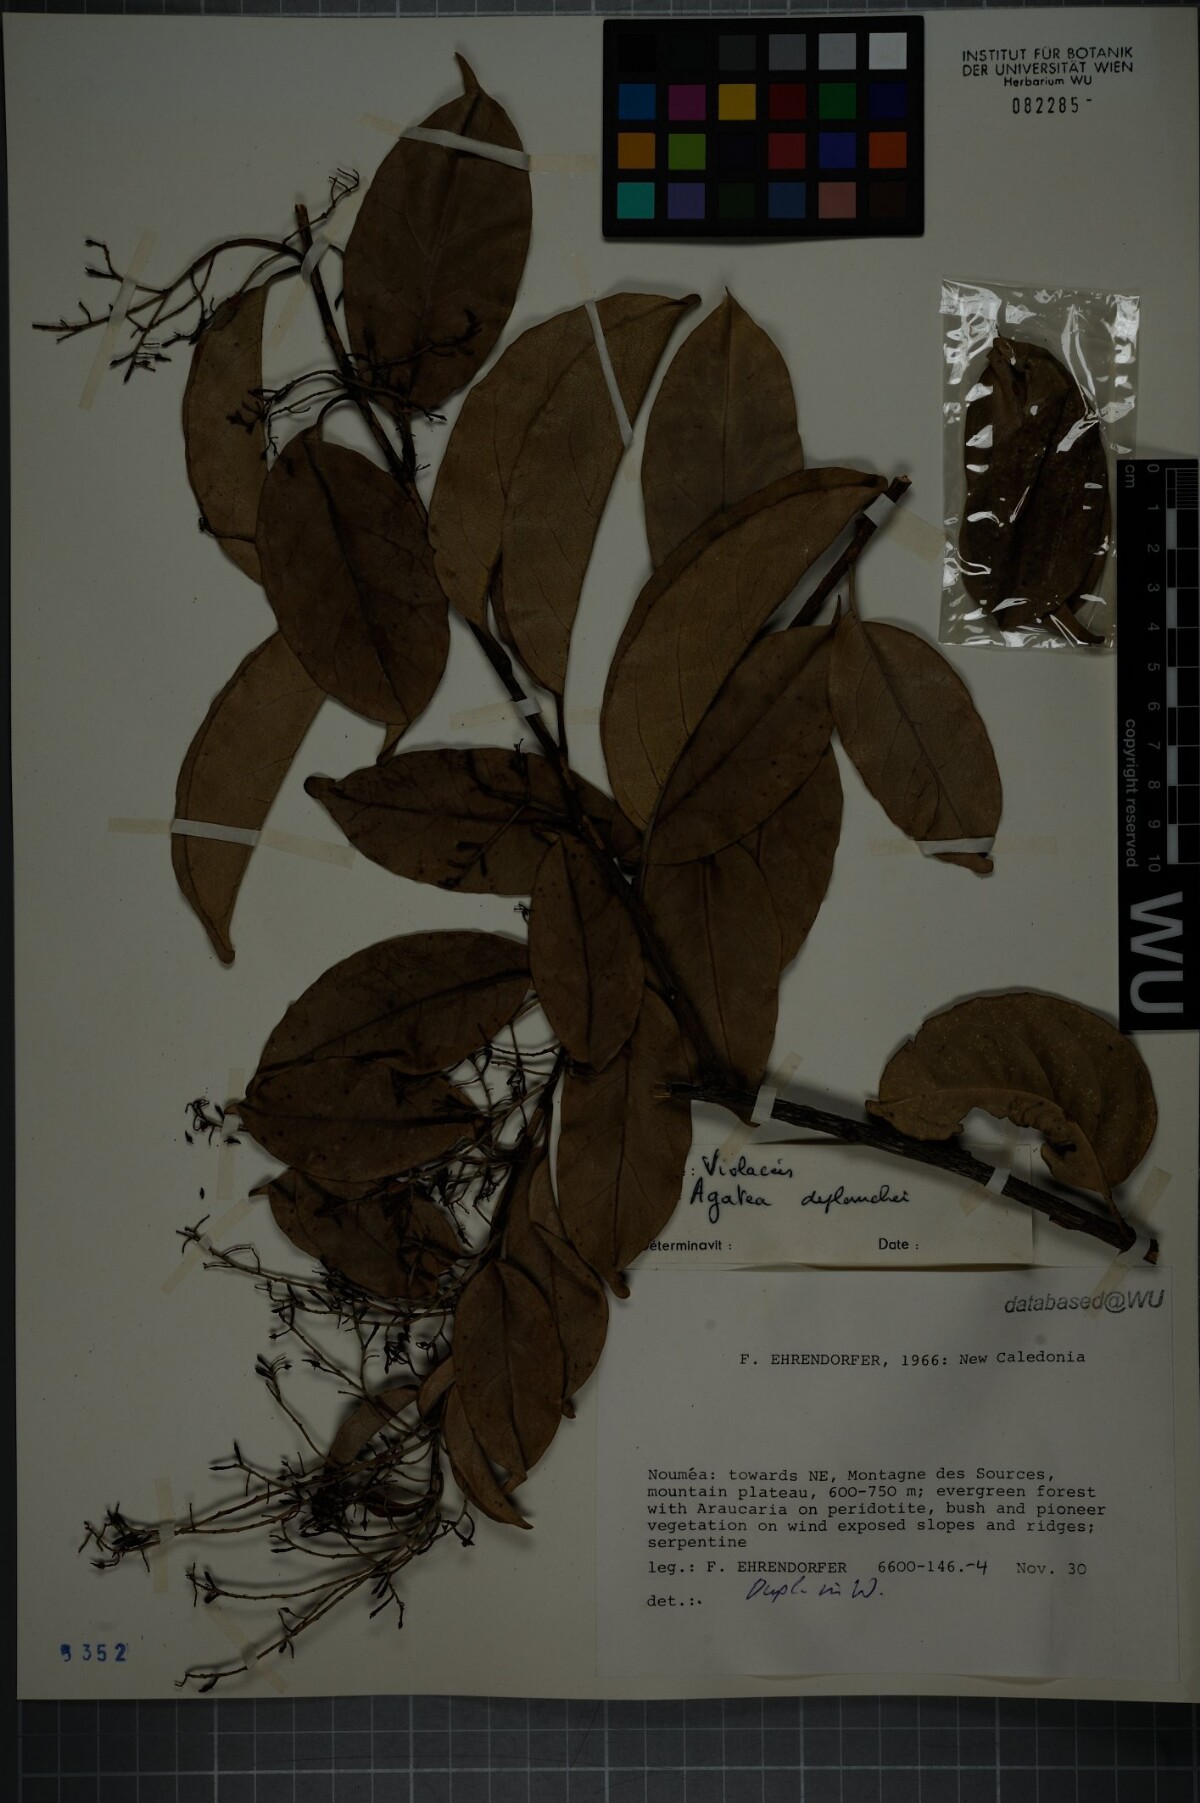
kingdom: Plantae
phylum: Tracheophyta
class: Magnoliopsida
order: Malpighiales
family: Violaceae
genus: Agatea
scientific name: Agatea longipedicellata
